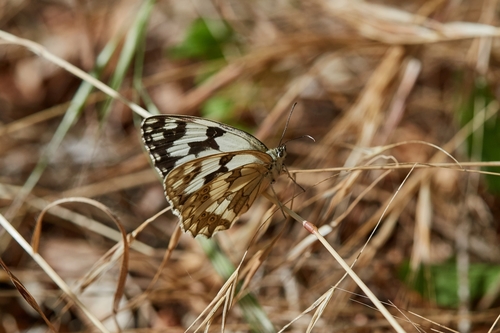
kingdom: Animalia
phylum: Arthropoda
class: Insecta
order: Lepidoptera
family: Nymphalidae
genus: Melanargia
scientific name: Melanargia lachesis
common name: Iberian marbled white
